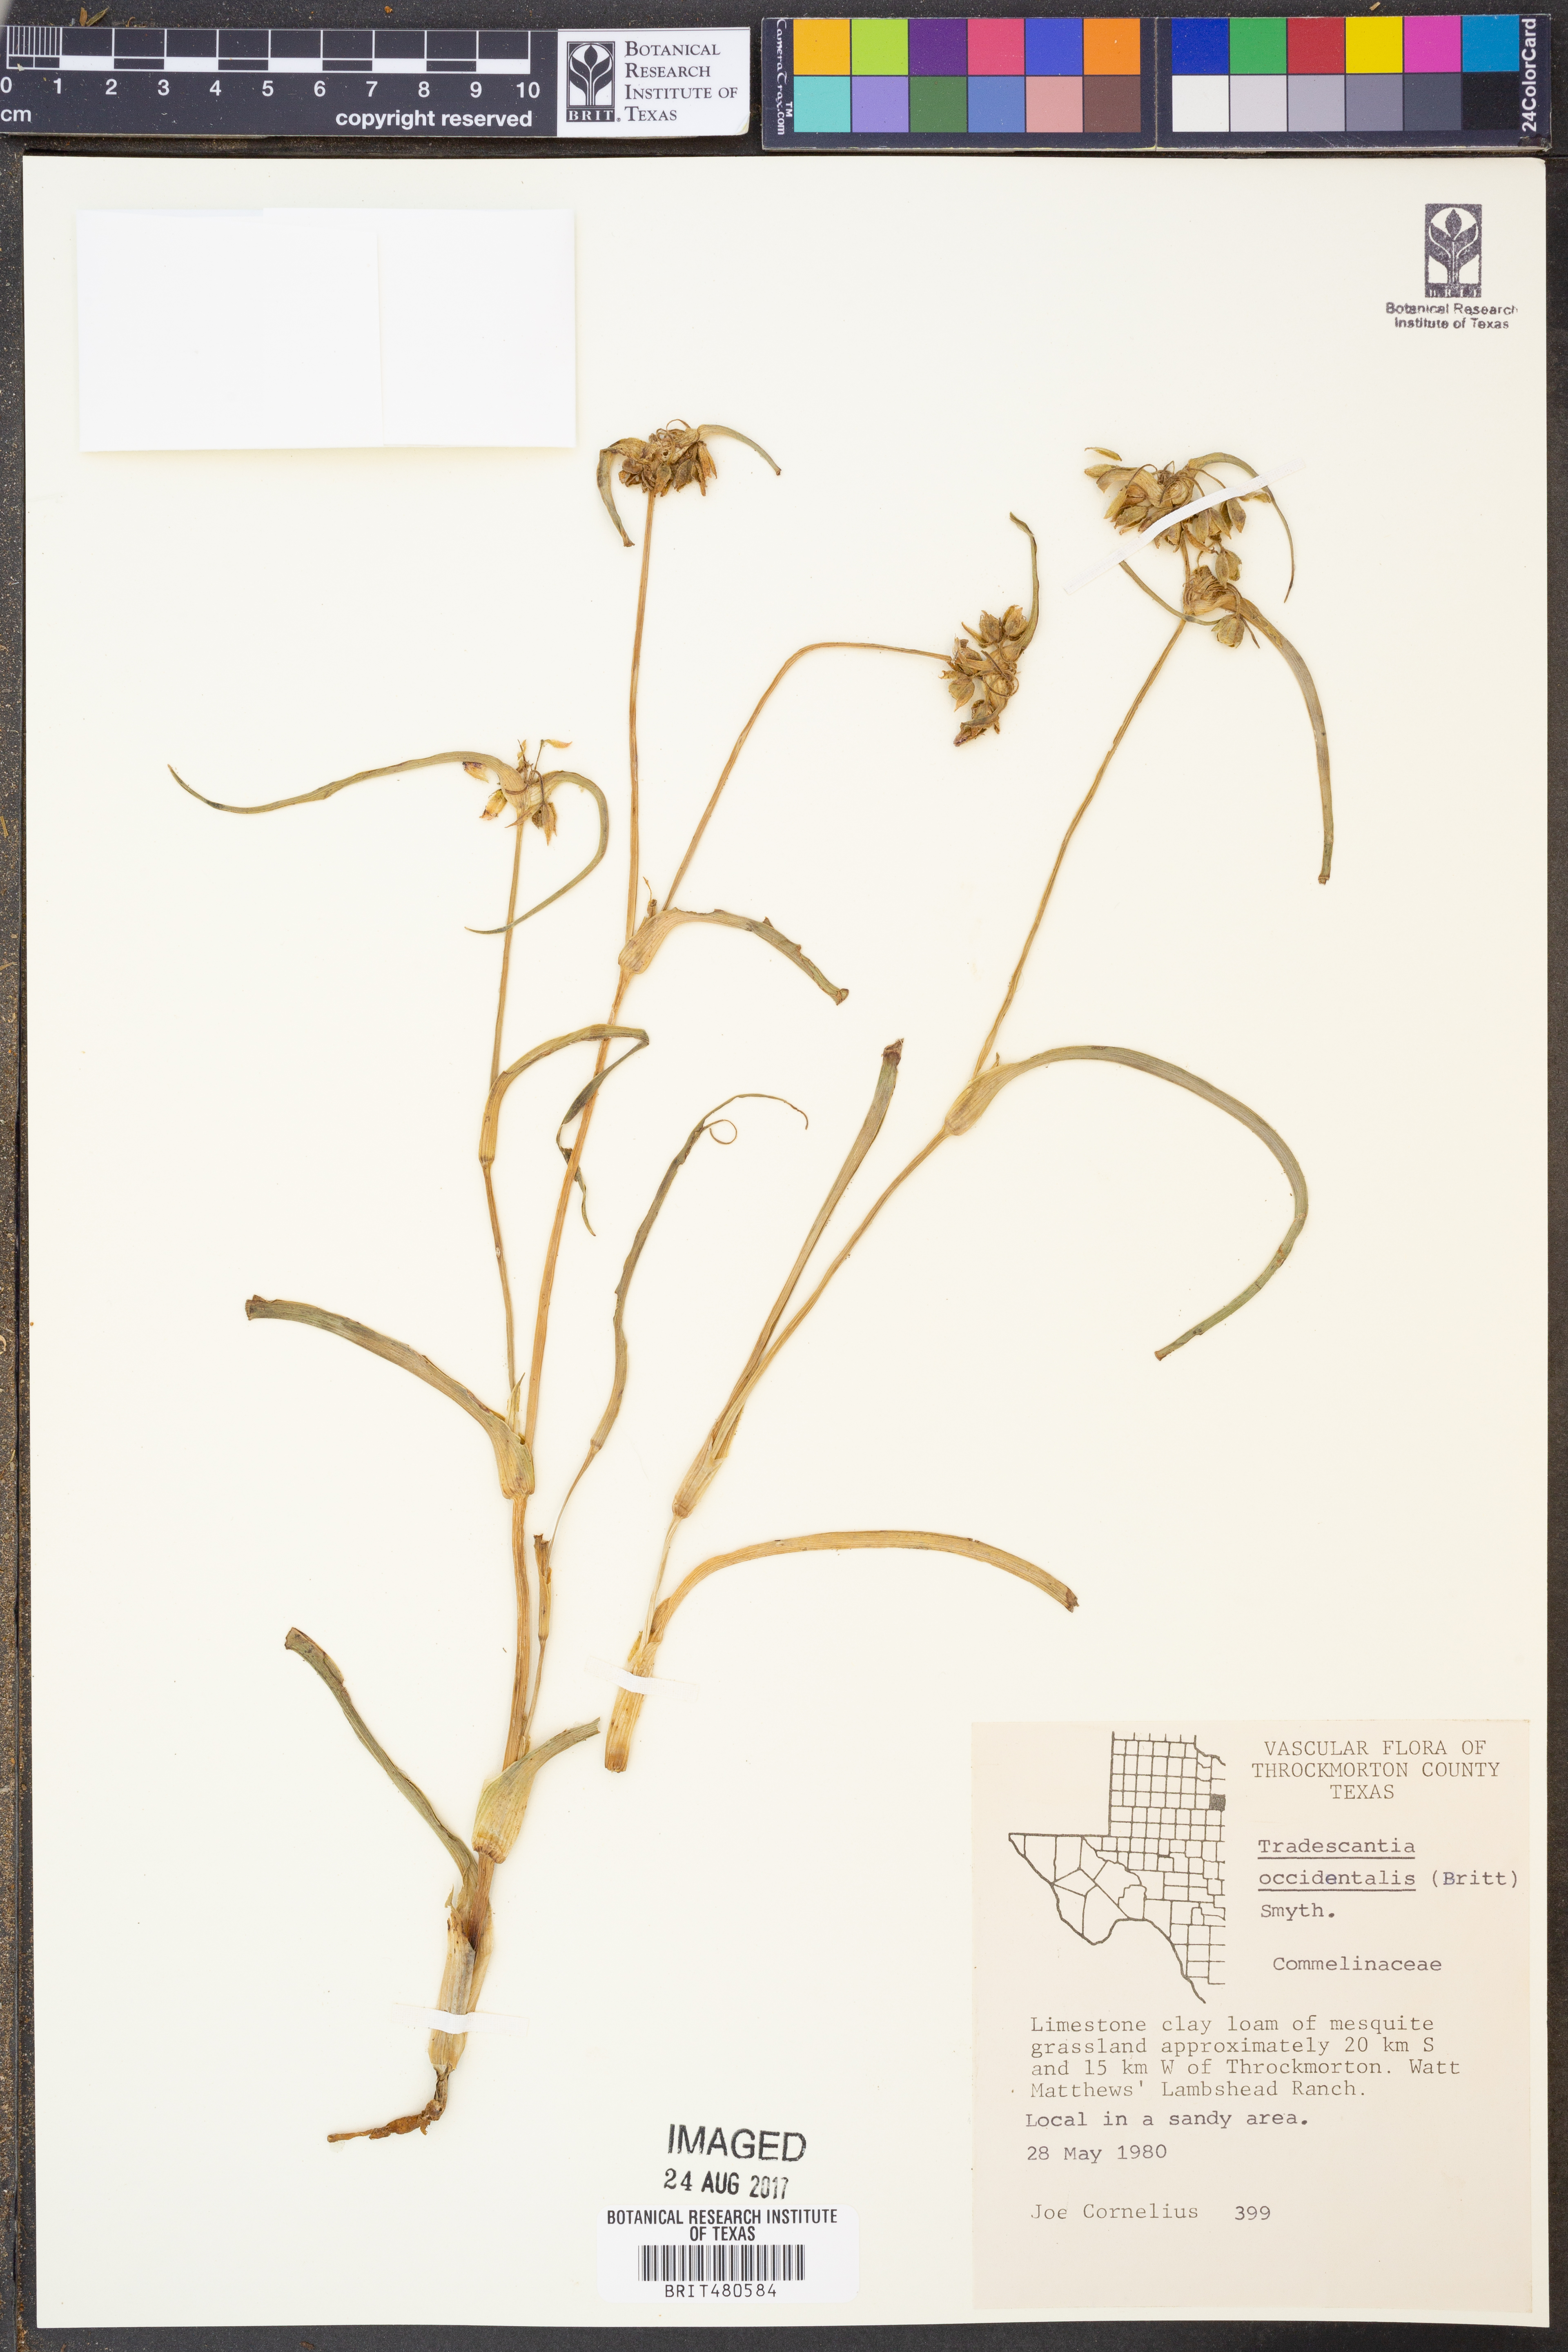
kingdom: Plantae
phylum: Tracheophyta
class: Liliopsida
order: Commelinales
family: Commelinaceae
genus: Tradescantia
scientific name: Tradescantia occidentalis
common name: Prairie spiderwort
